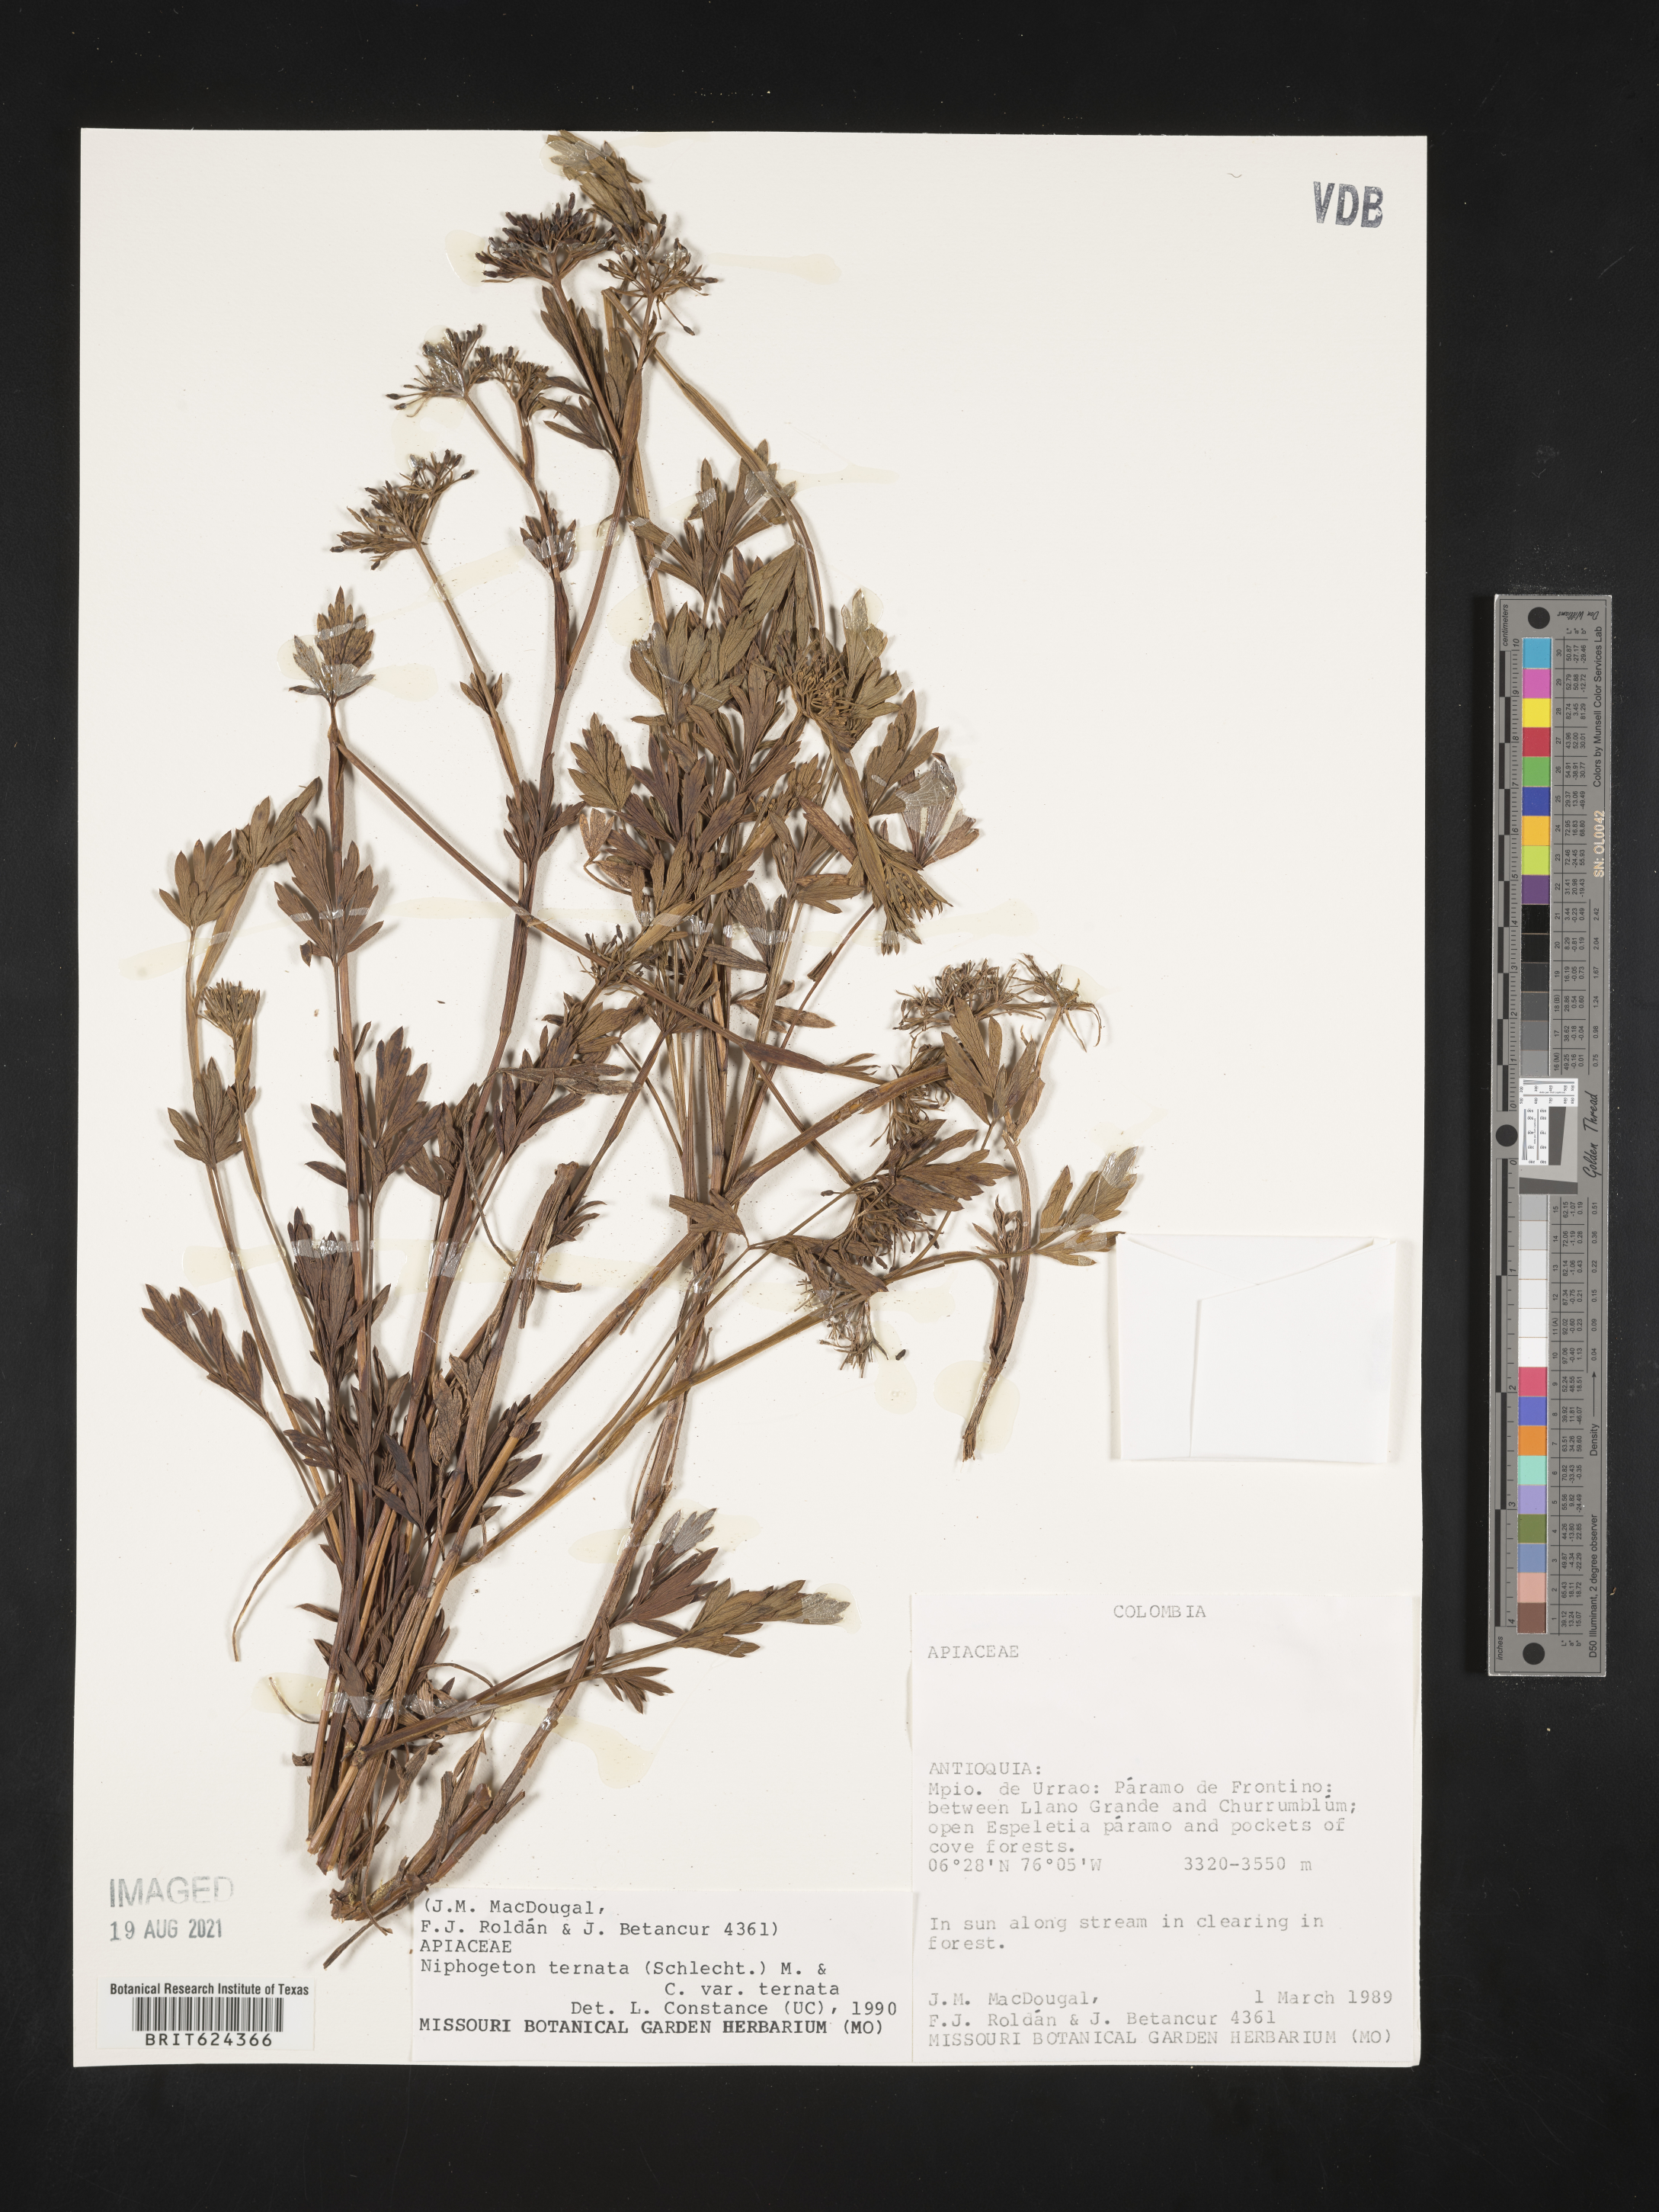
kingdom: Plantae
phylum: Tracheophyta
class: Magnoliopsida
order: Apiales
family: Apiaceae
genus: Niphogeton
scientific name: Niphogeton ternata
